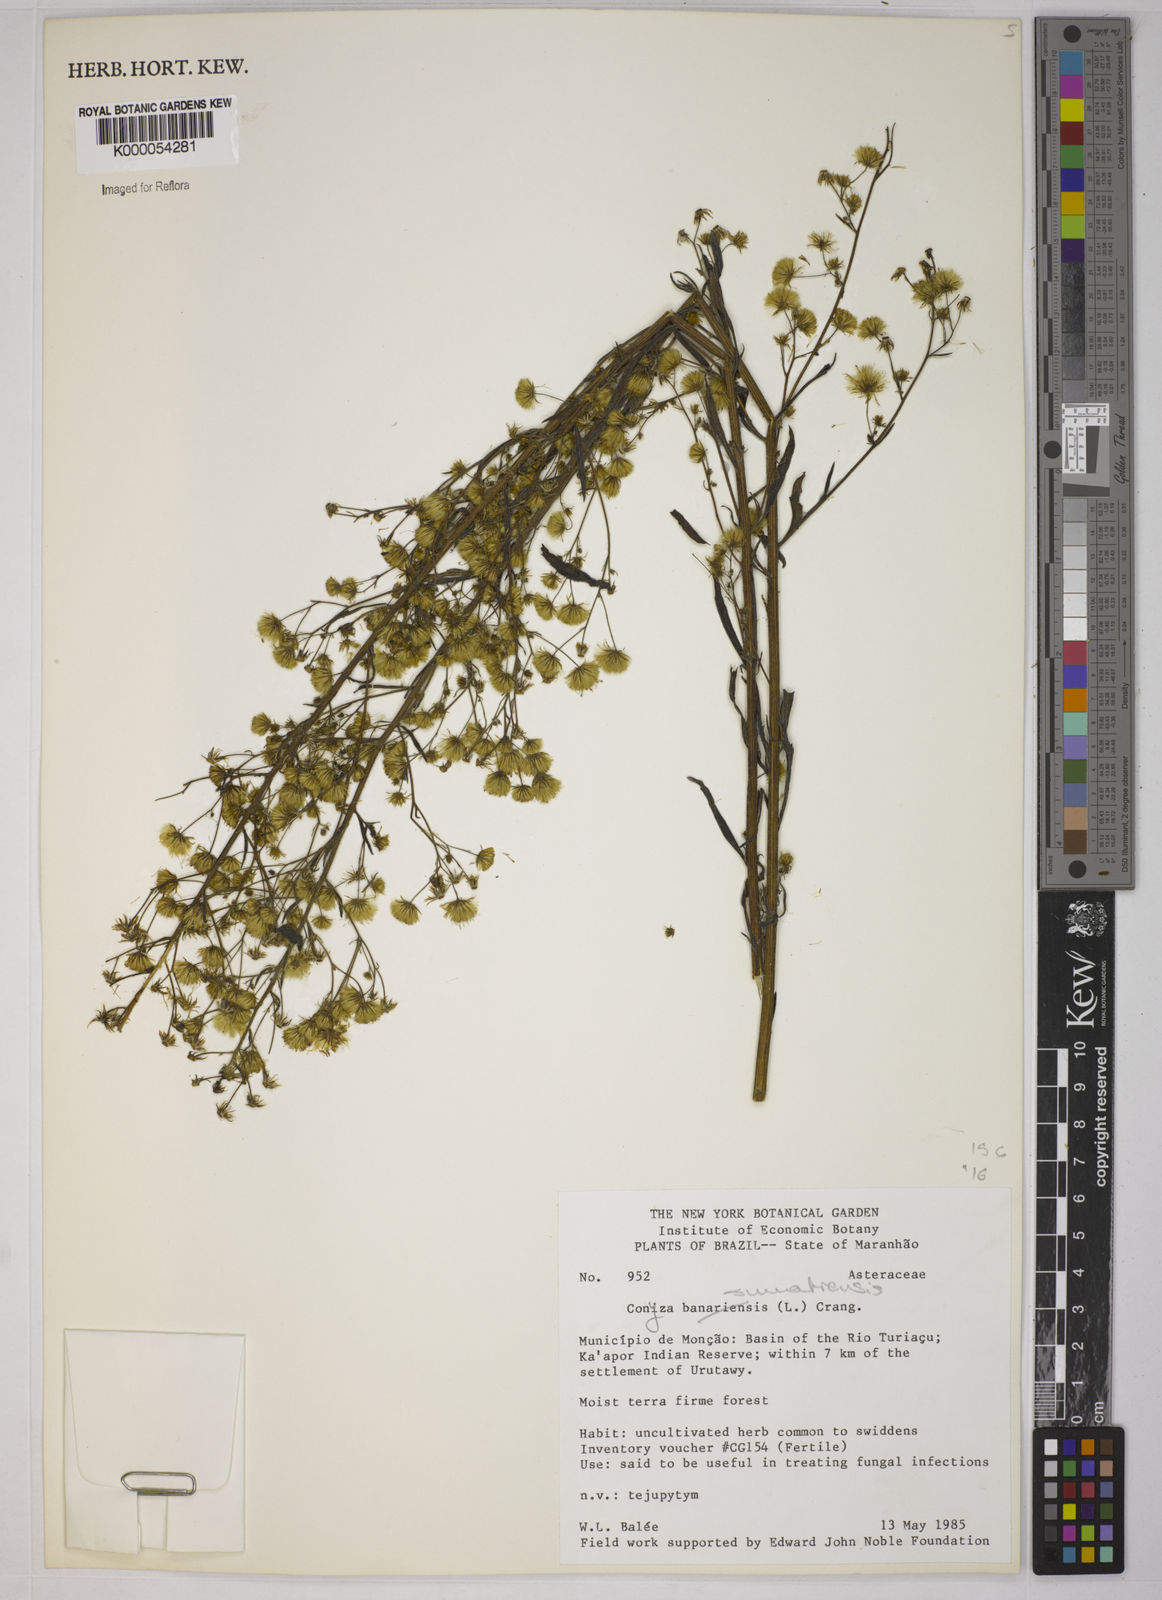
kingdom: Plantae
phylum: Tracheophyta
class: Magnoliopsida
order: Asterales
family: Asteraceae
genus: Erigeron
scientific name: Erigeron sumatrensis
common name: Daisy
